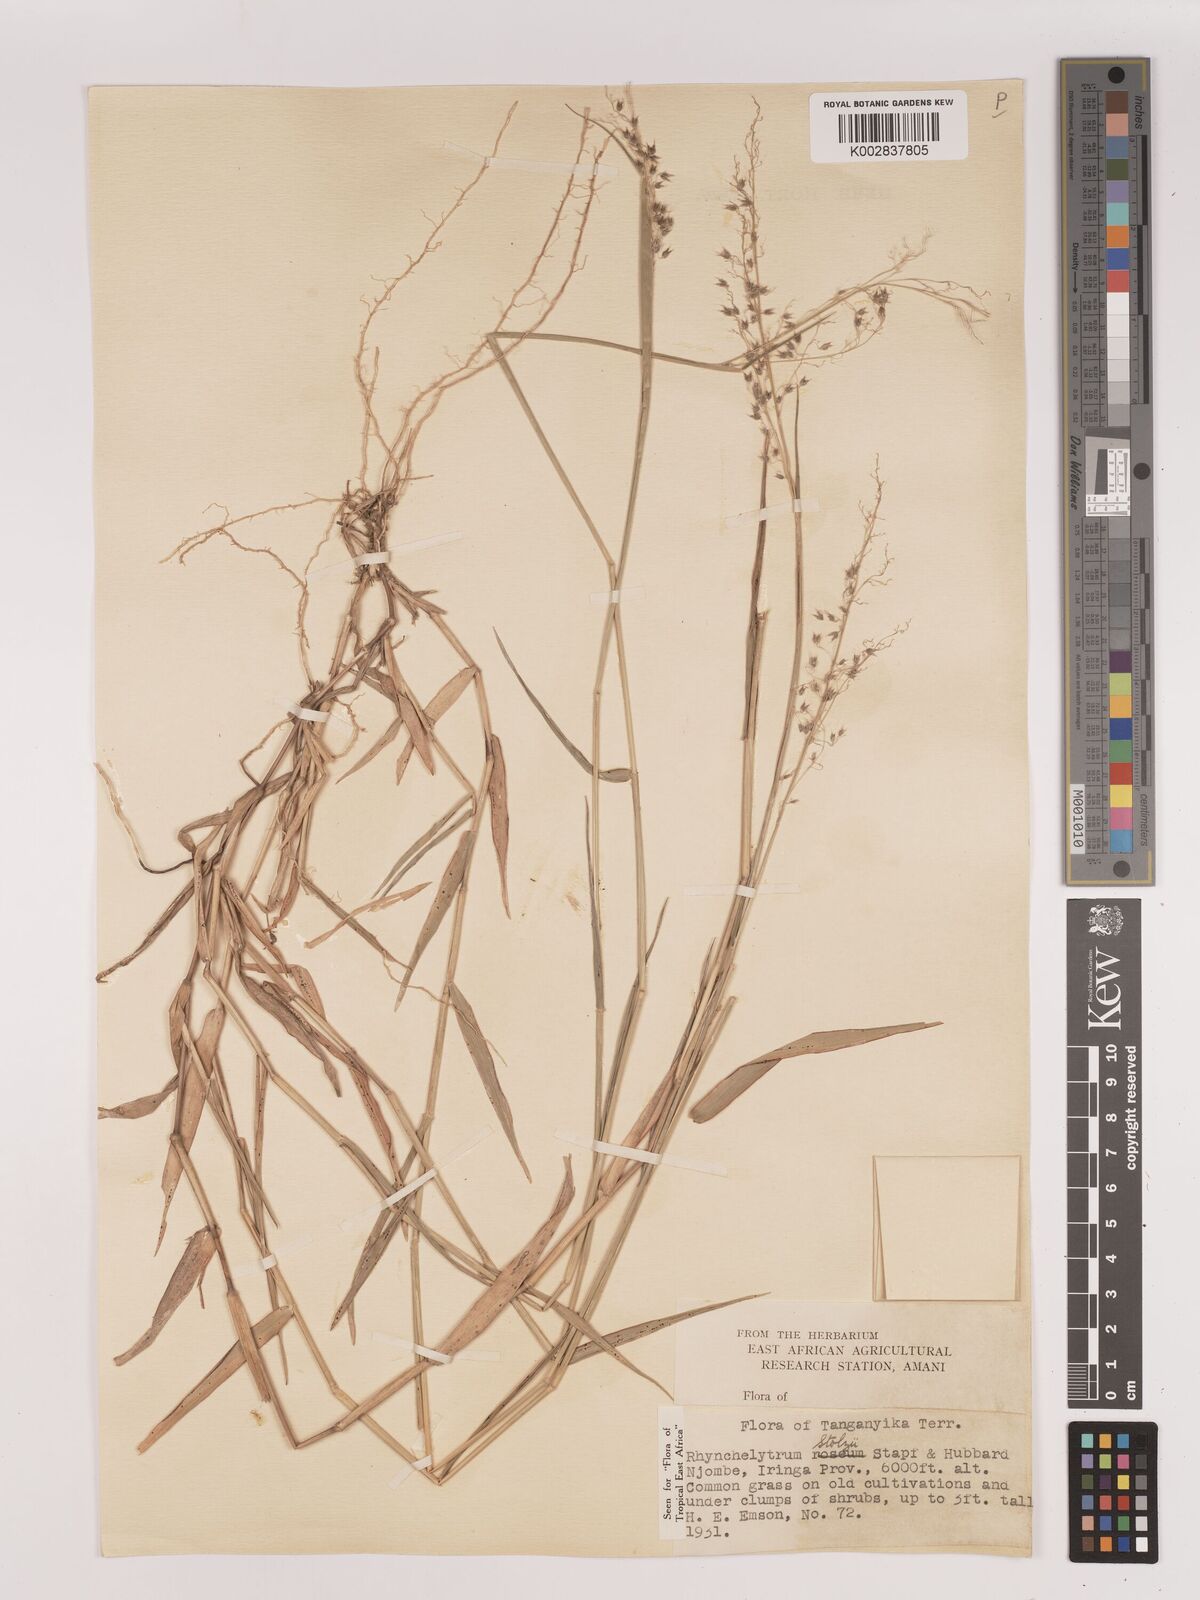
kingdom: Plantae
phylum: Tracheophyta
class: Liliopsida
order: Poales
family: Poaceae
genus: Melinis
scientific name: Melinis repens
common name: Rose natal grass
